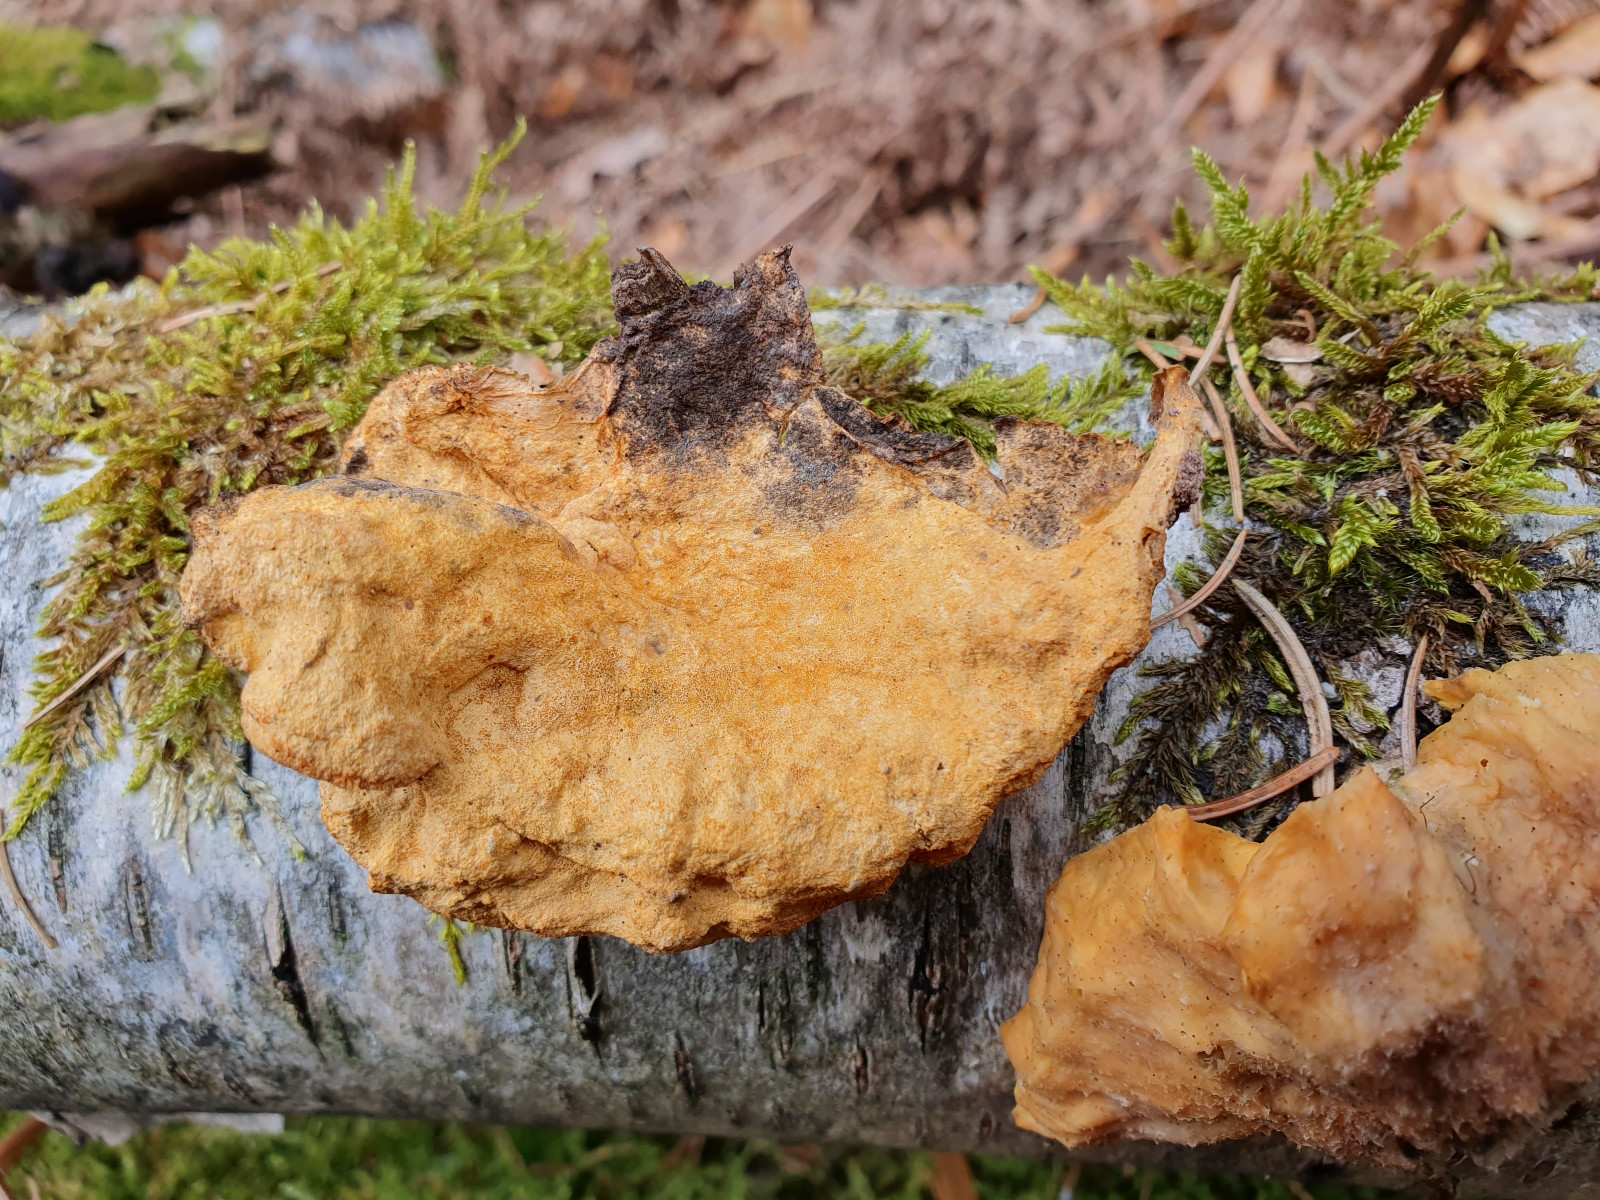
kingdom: Fungi
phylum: Basidiomycota
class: Agaricomycetes
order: Polyporales
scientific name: Polyporales
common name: poresvampordenen
